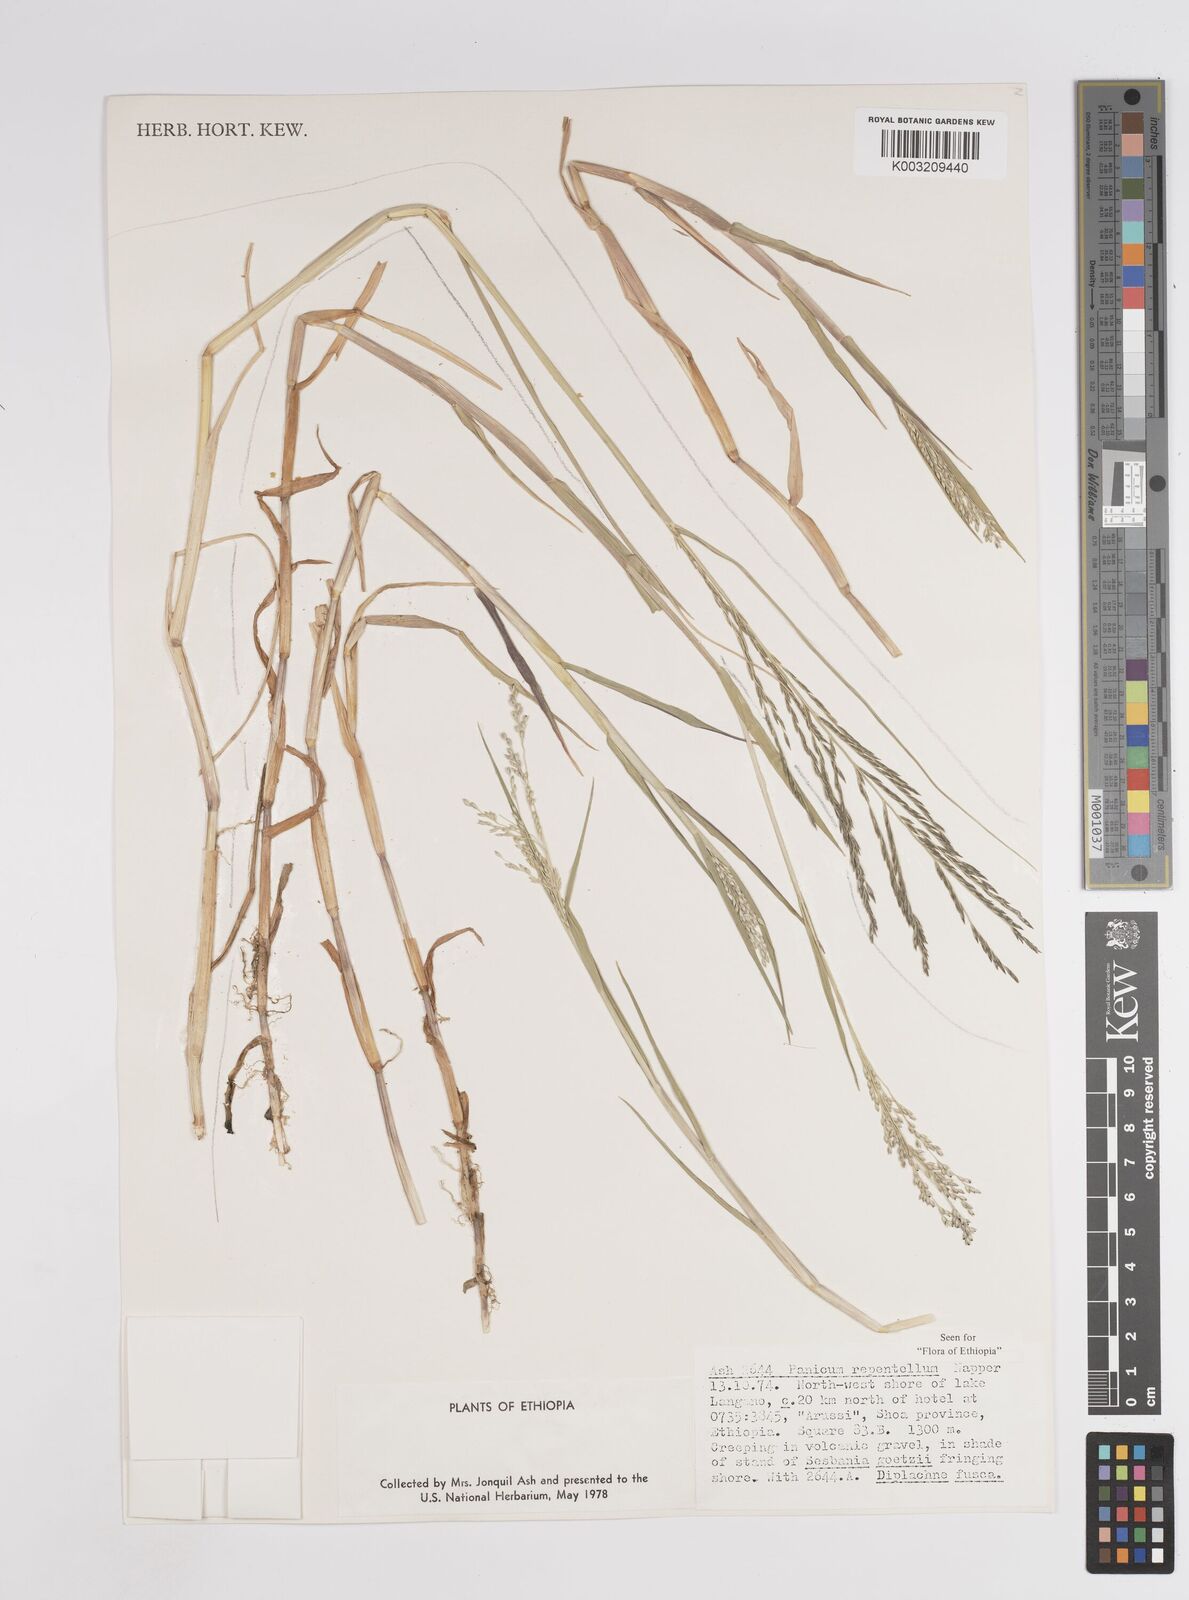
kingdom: Plantae
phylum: Tracheophyta
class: Liliopsida
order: Poales
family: Poaceae
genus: Panicum
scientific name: Panicum hygrocharis
